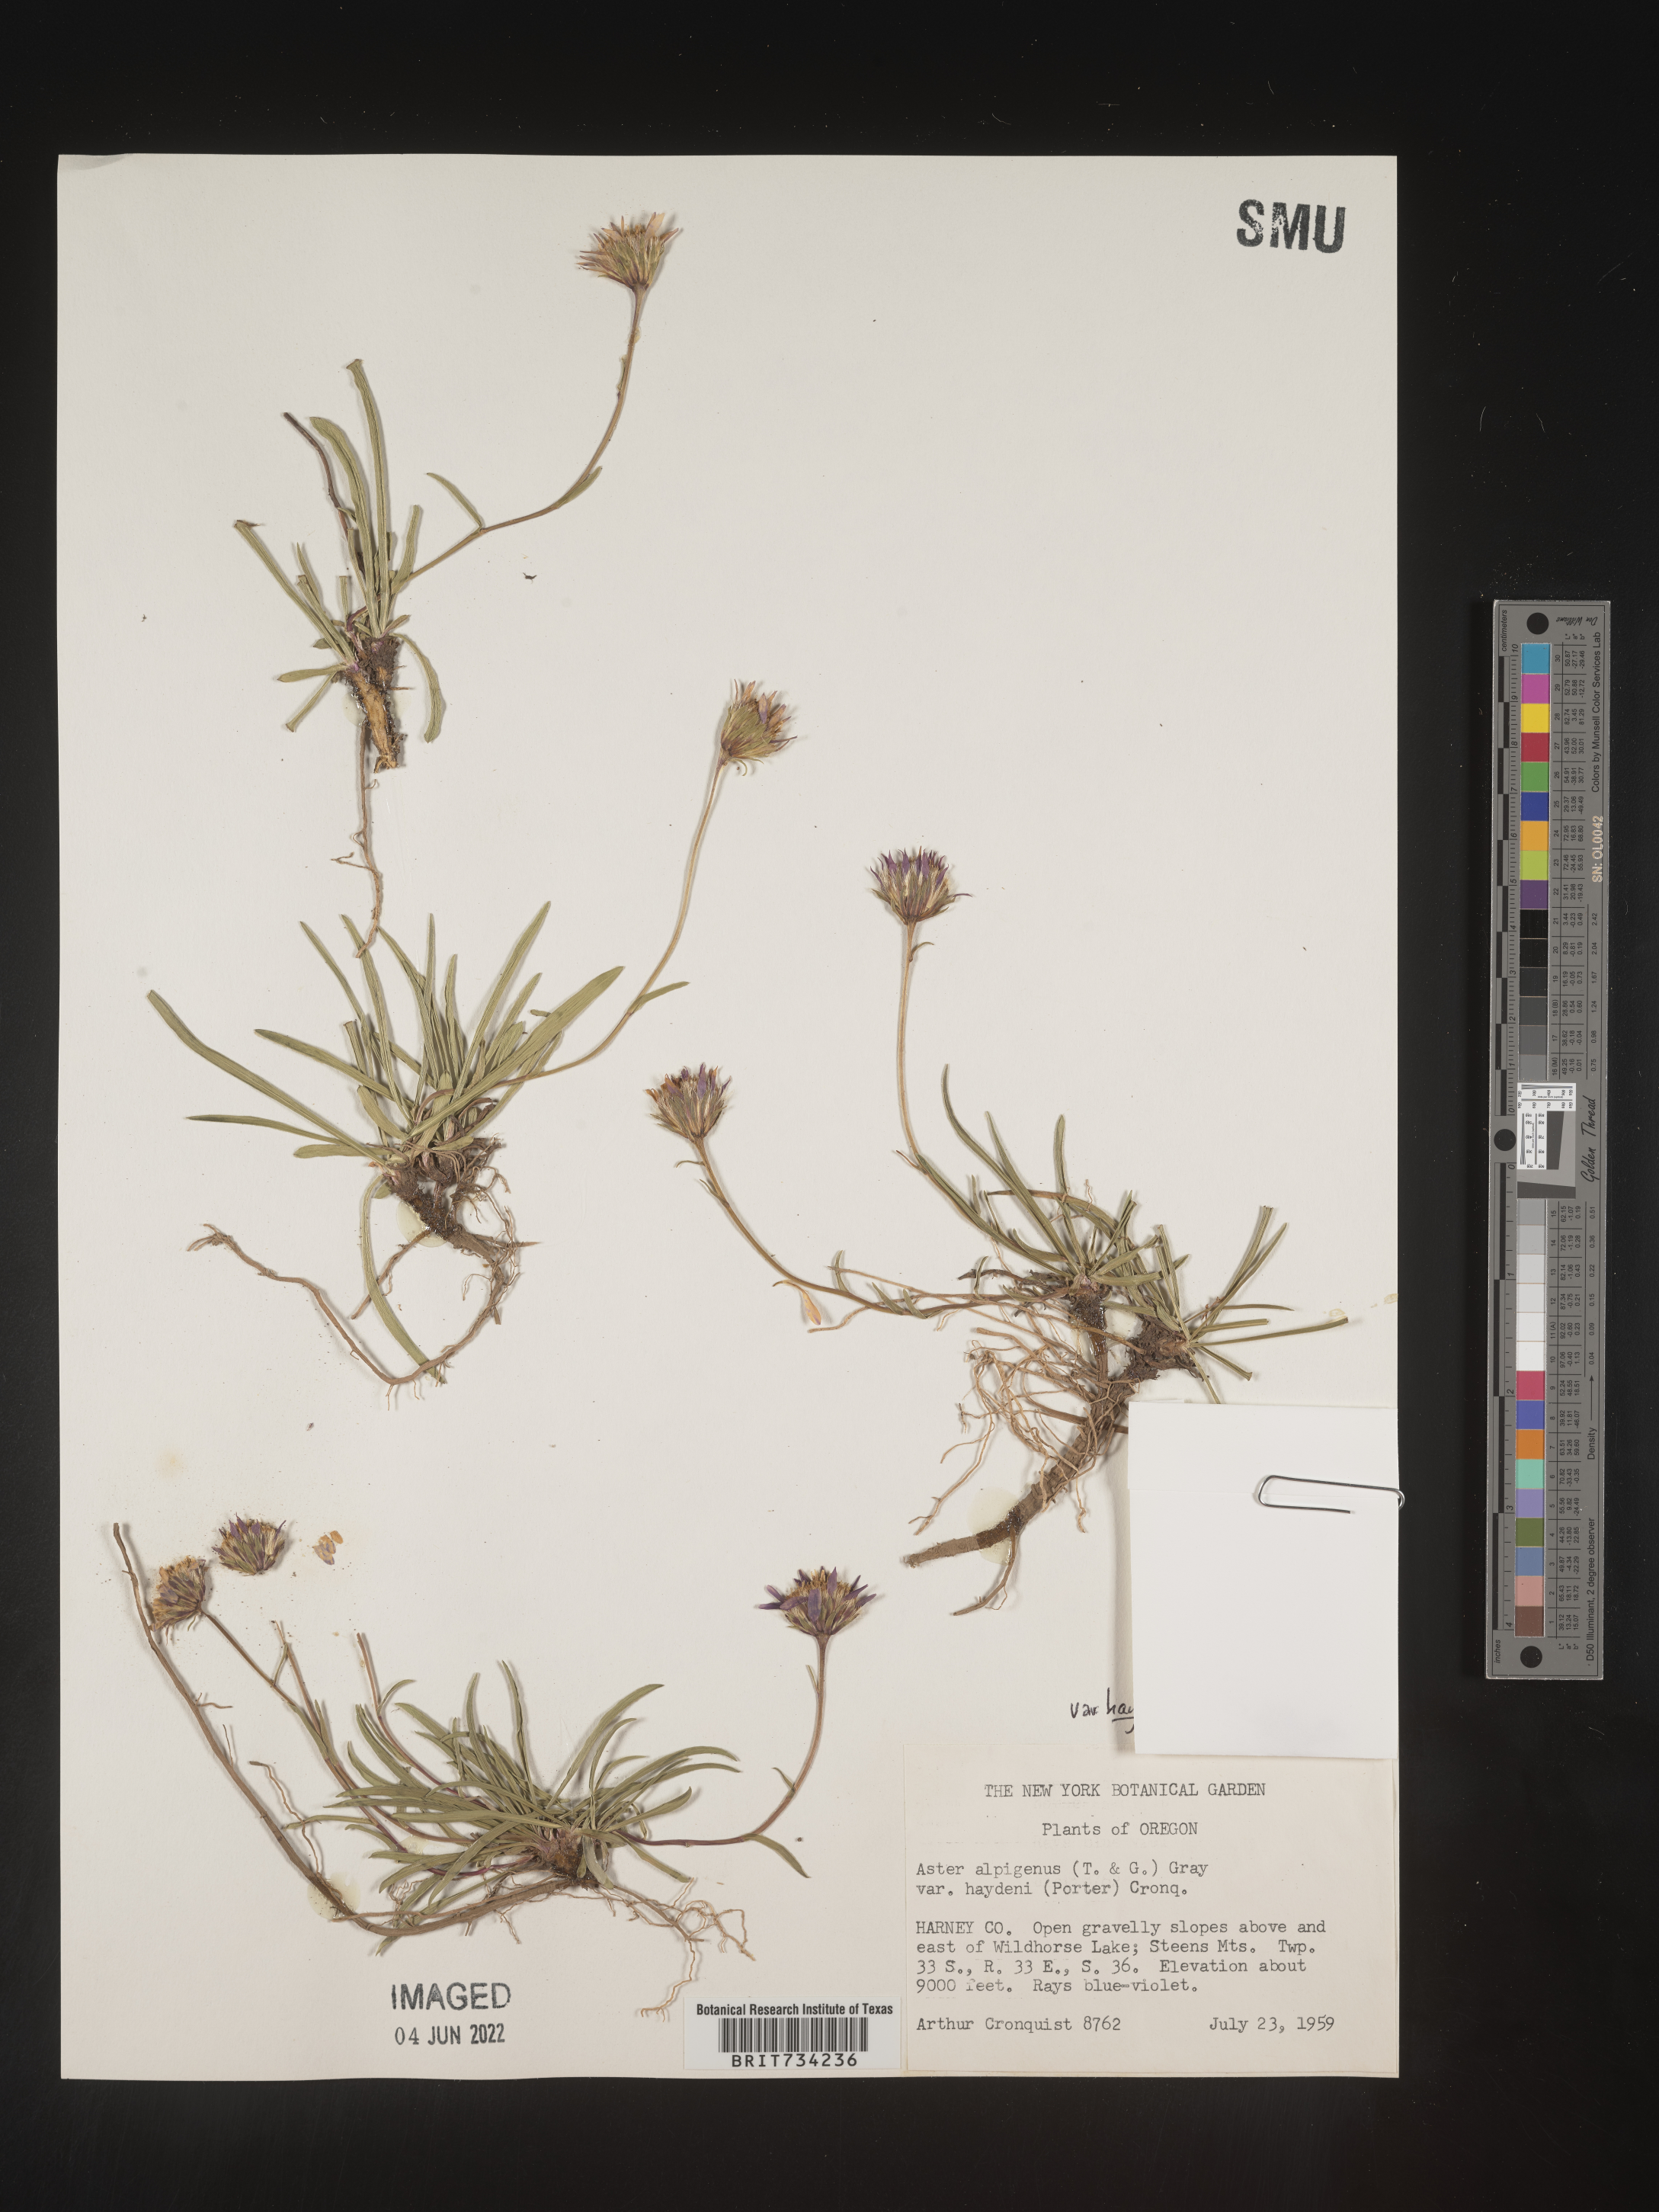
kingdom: Plantae
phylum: Tracheophyta
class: Magnoliopsida
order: Asterales
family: Asteraceae
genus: Oreostemma
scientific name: Oreostemma alpigenum
